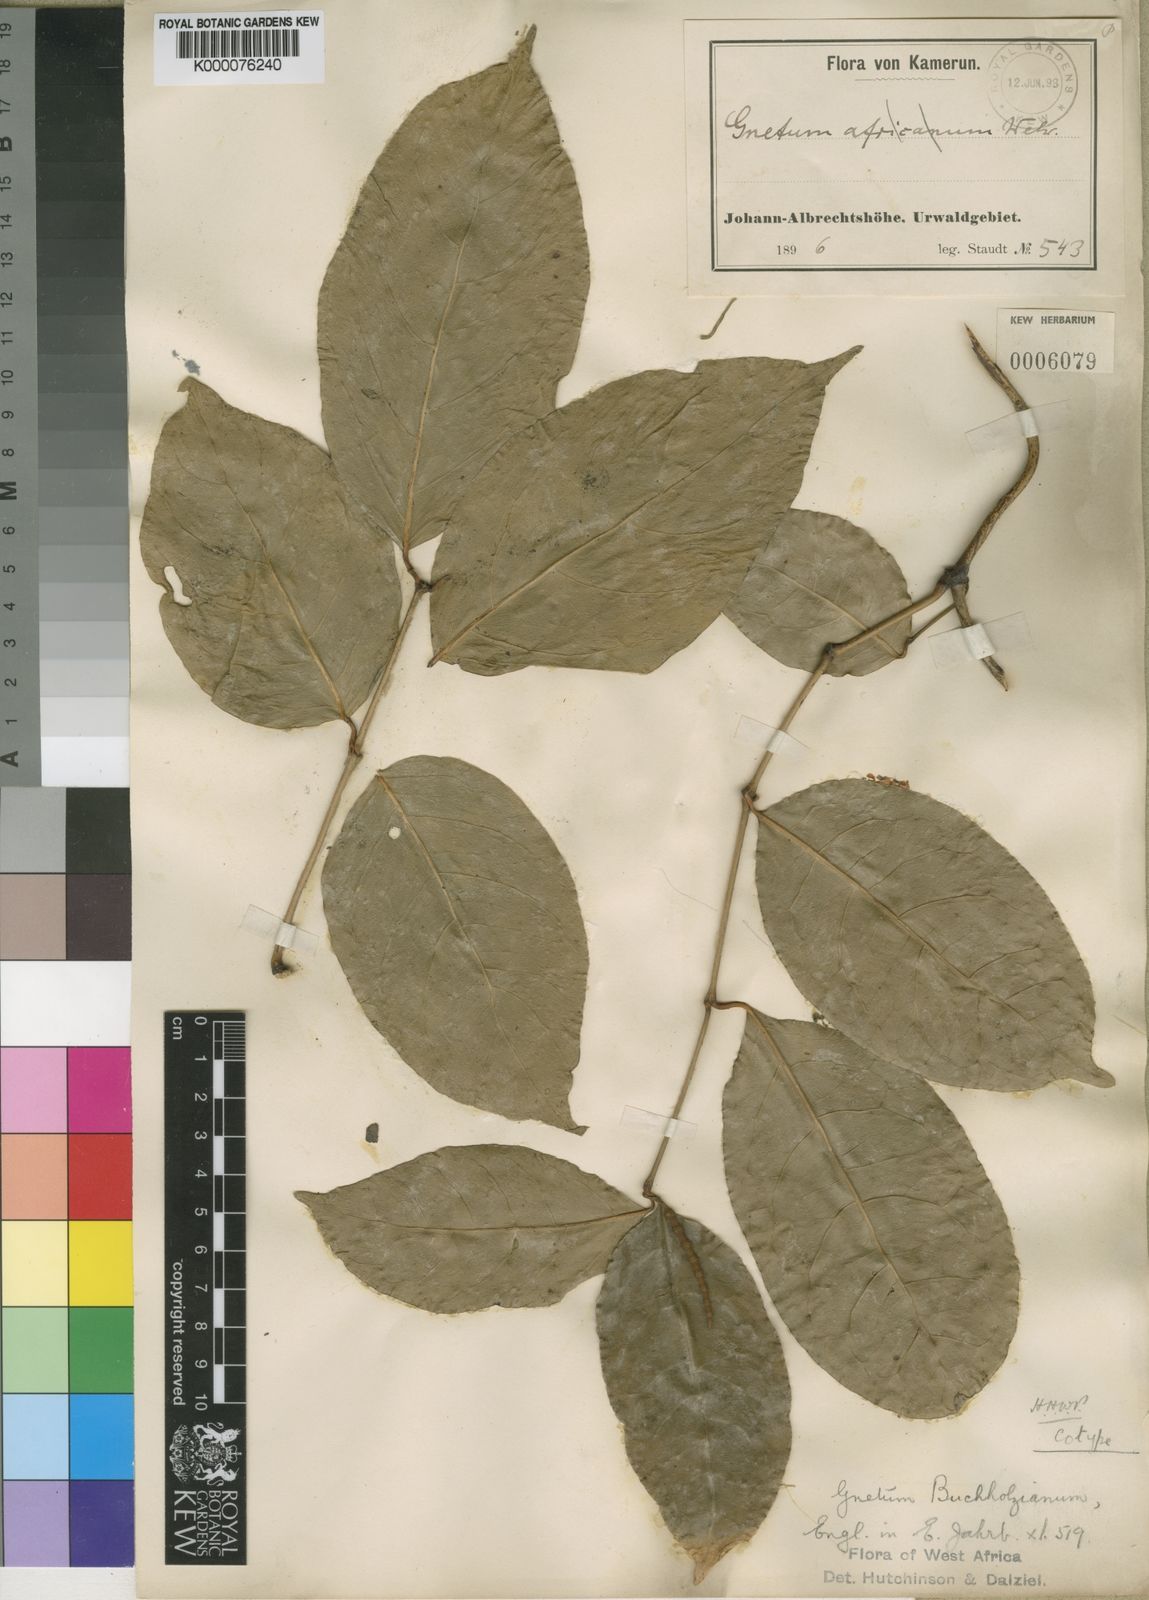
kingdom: Plantae
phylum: Tracheophyta
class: Gnetopsida
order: Gnetales
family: Gnetaceae
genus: Gnetum
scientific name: Gnetum buchholzianum
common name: Eru
